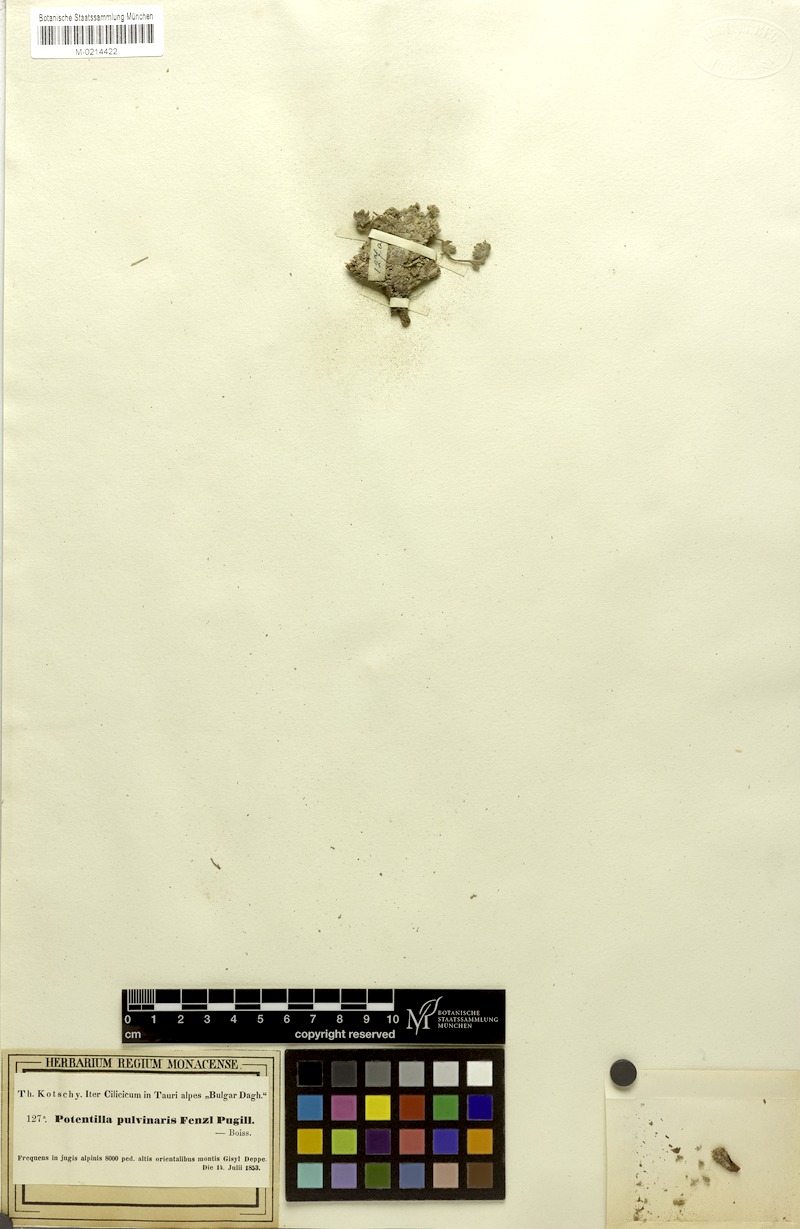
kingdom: Plantae
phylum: Tracheophyta
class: Magnoliopsida
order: Rosales
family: Rosaceae
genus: Potentilla
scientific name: Potentilla pulvinaris
